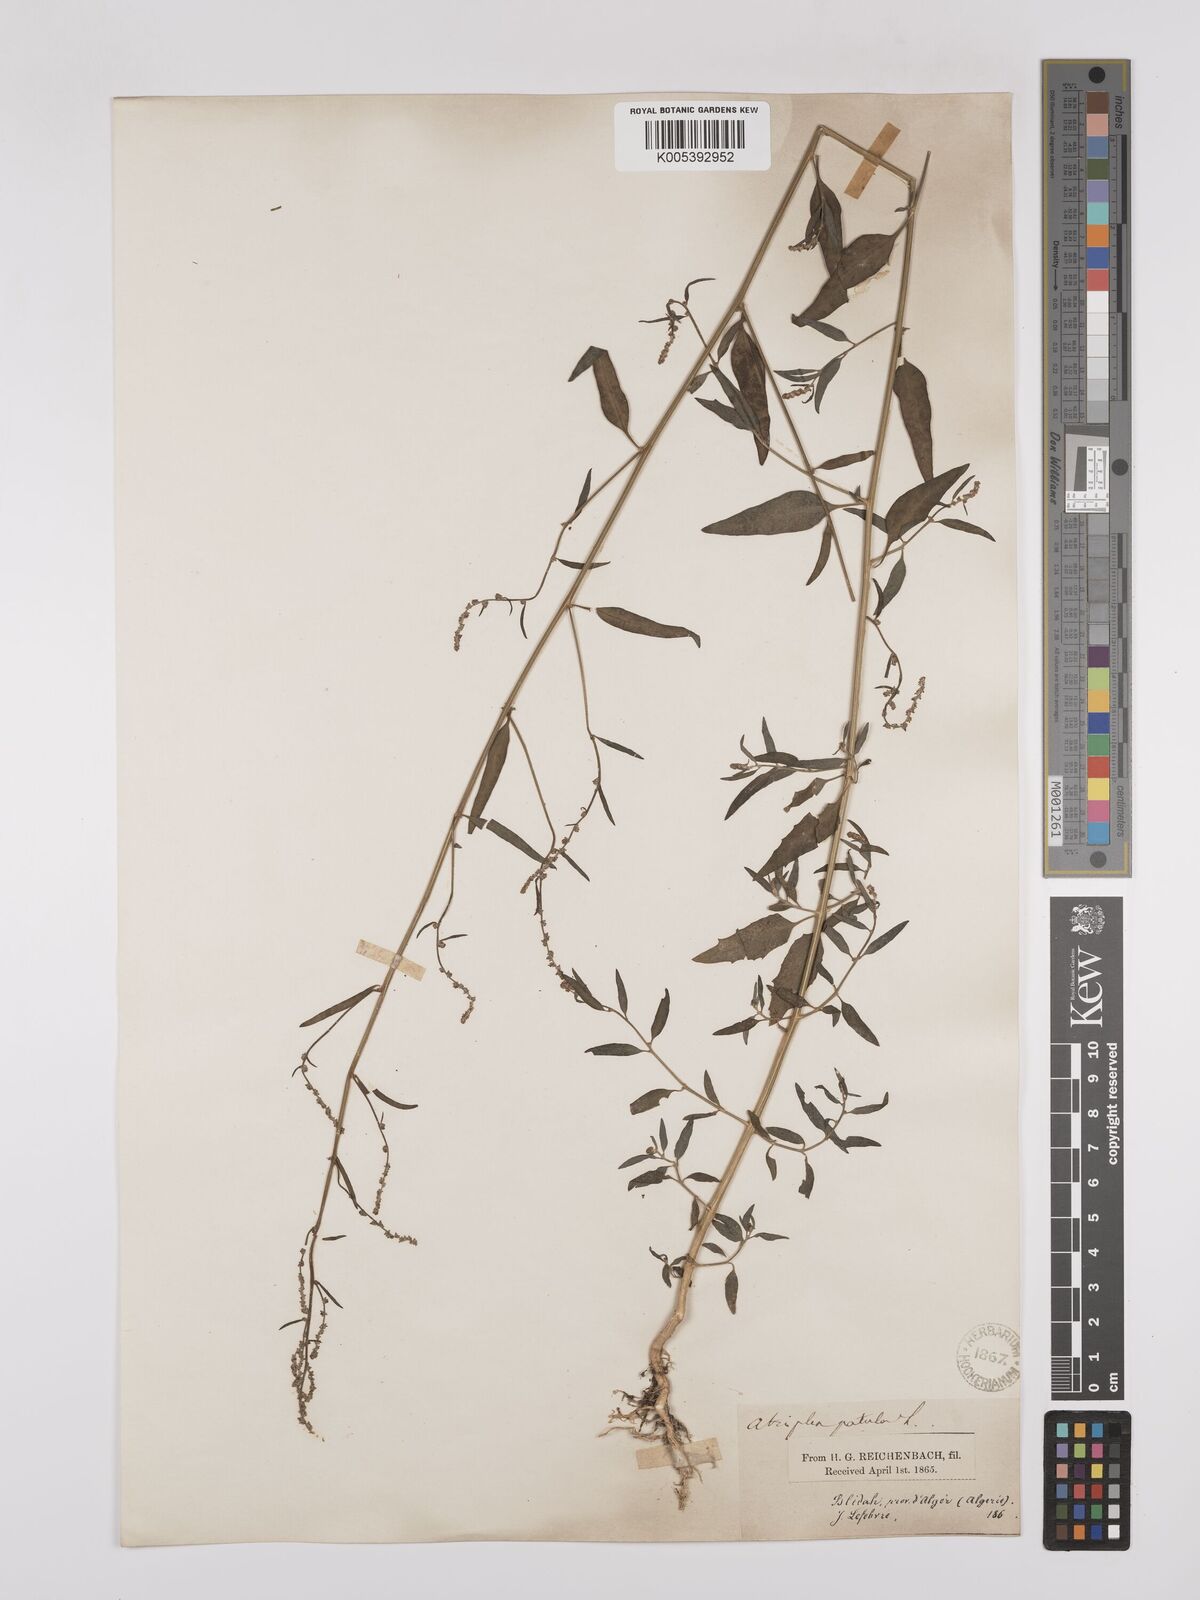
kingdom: Plantae
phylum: Tracheophyta
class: Magnoliopsida
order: Caryophyllales
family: Amaranthaceae
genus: Atriplex
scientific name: Atriplex patula
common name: Common orache
